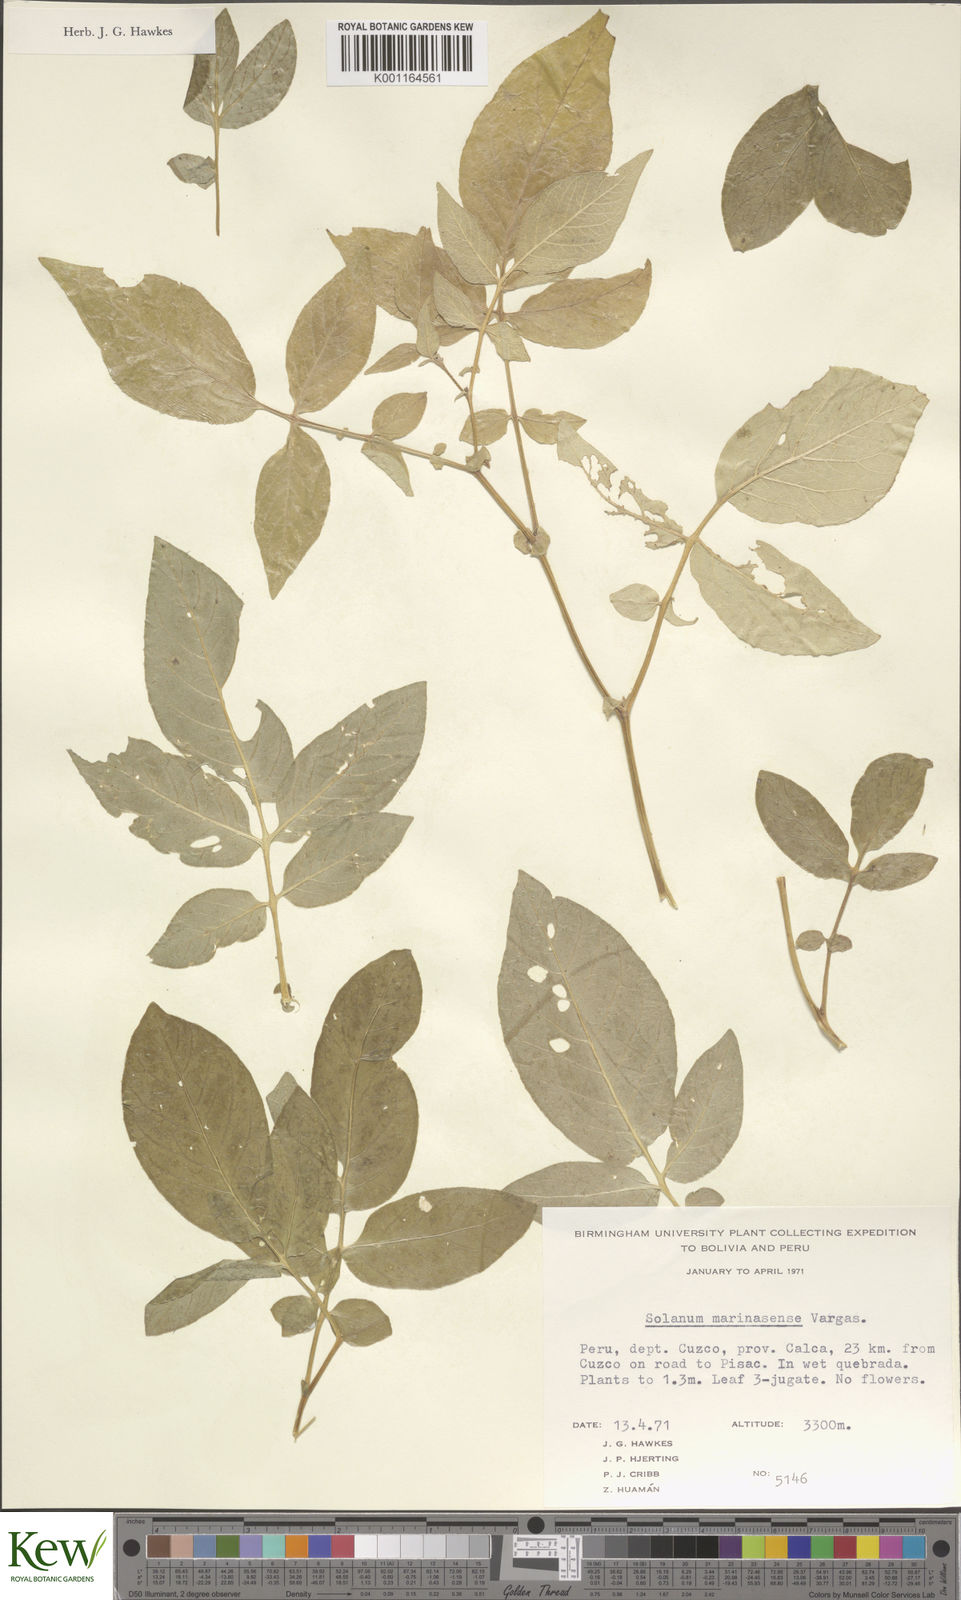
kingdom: Plantae
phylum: Tracheophyta
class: Magnoliopsida
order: Solanales
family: Solanaceae
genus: Solanum
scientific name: Solanum candolleanum
